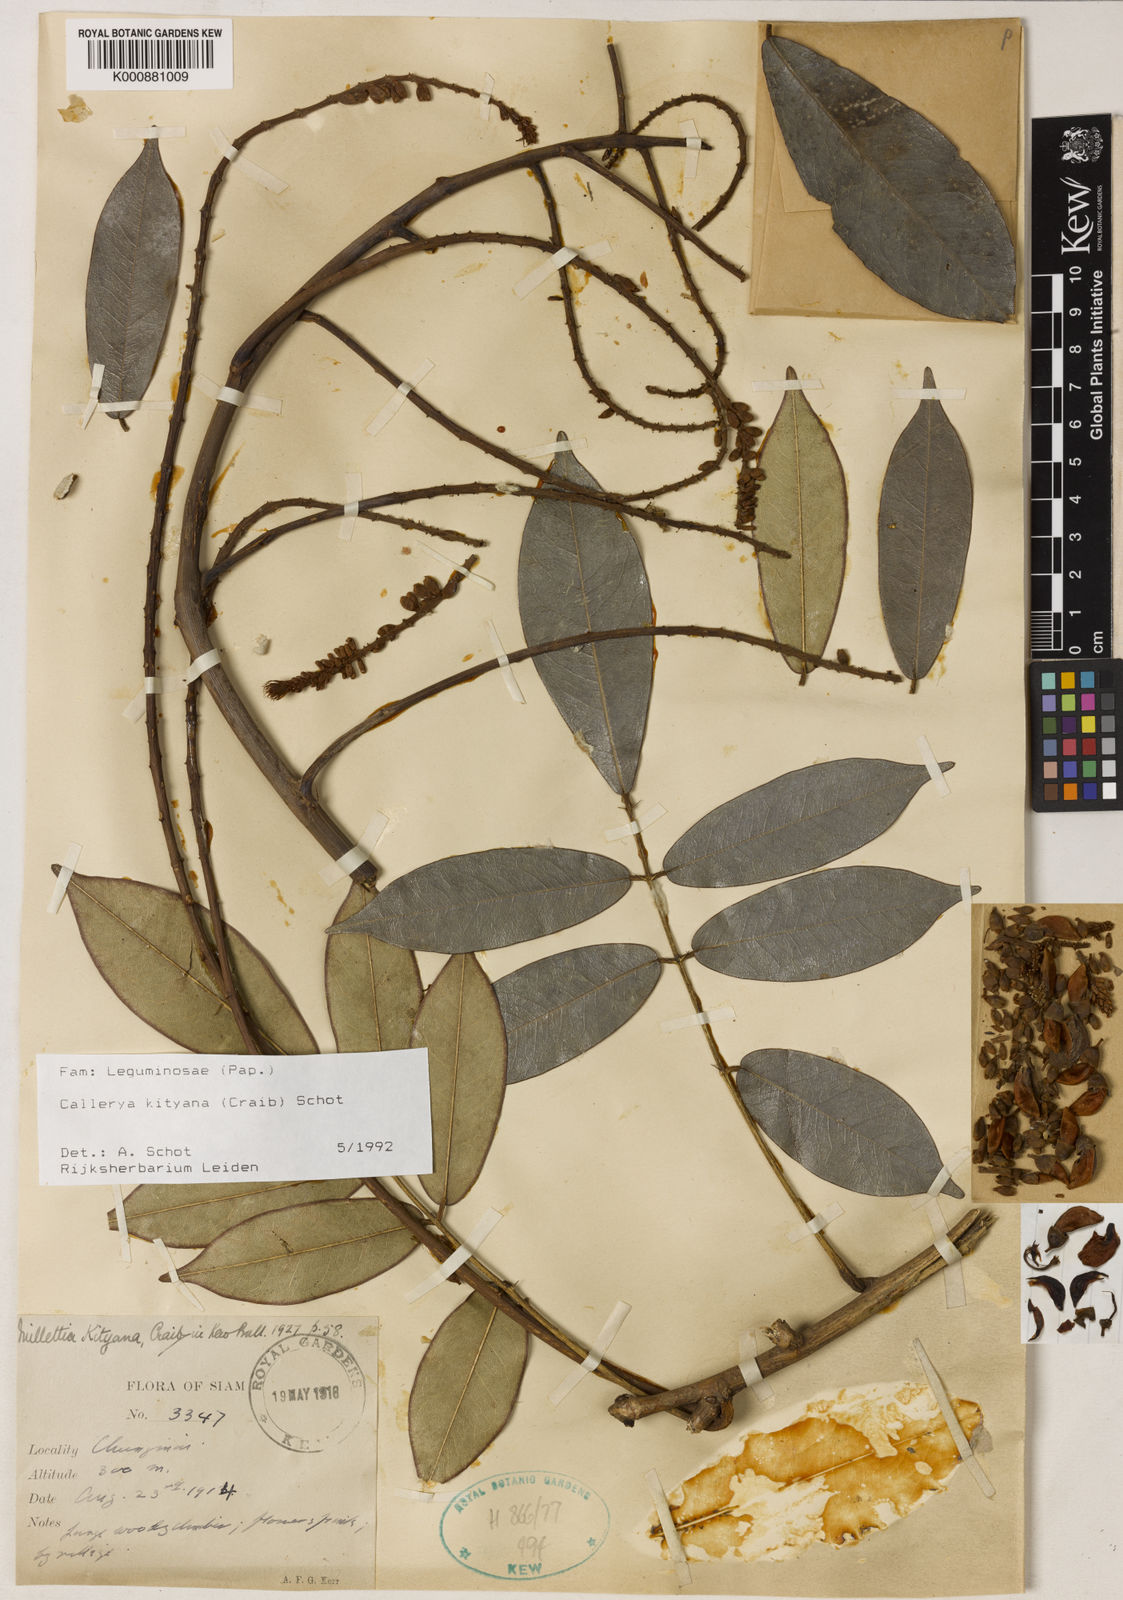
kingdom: Plantae
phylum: Tracheophyta
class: Magnoliopsida
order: Fabales
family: Fabaceae
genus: Sigmoidala
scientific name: Sigmoidala kityana
